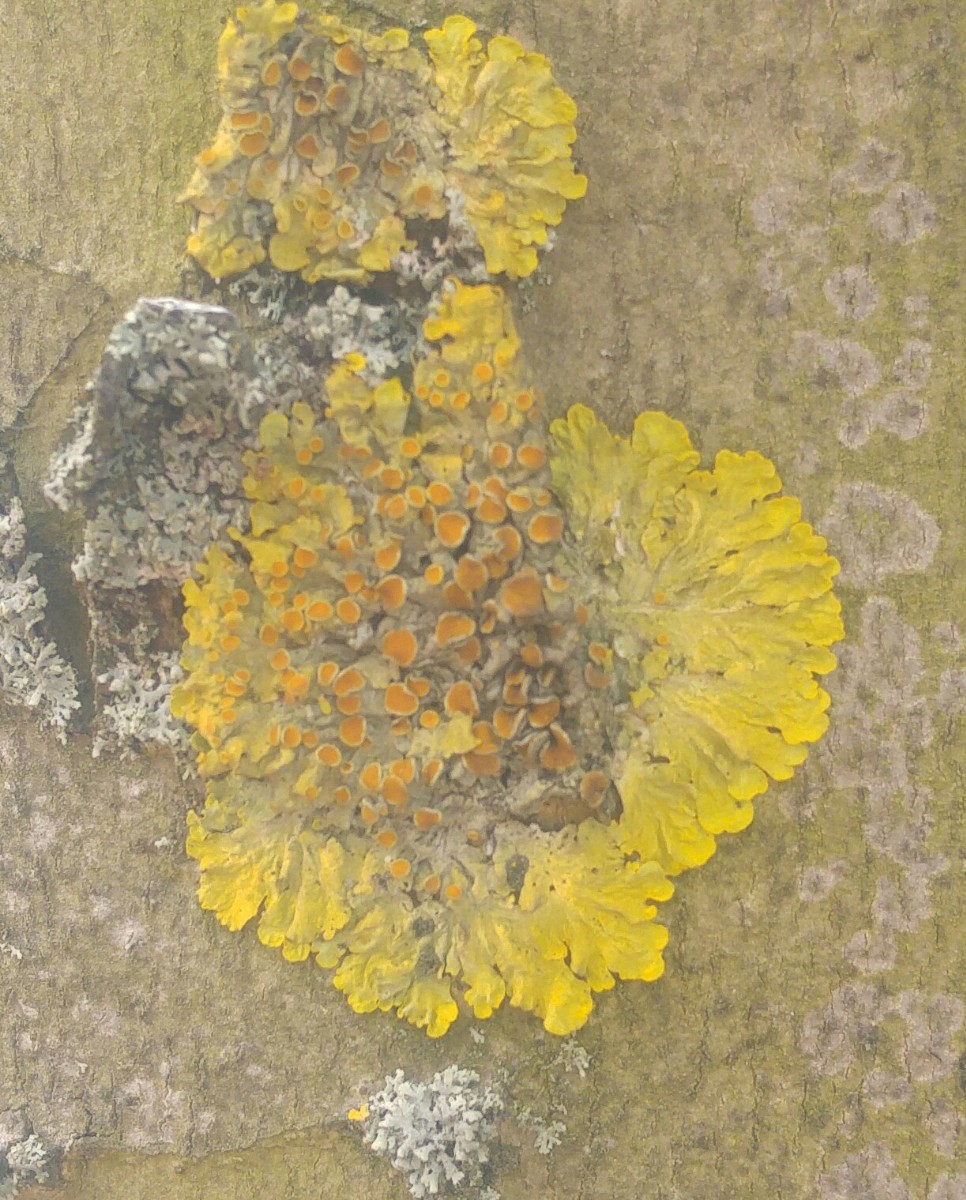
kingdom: Fungi
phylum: Ascomycota
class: Lecanoromycetes
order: Teloschistales
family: Teloschistaceae
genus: Xanthoria
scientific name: Xanthoria parietina
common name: almindelig væggelav
